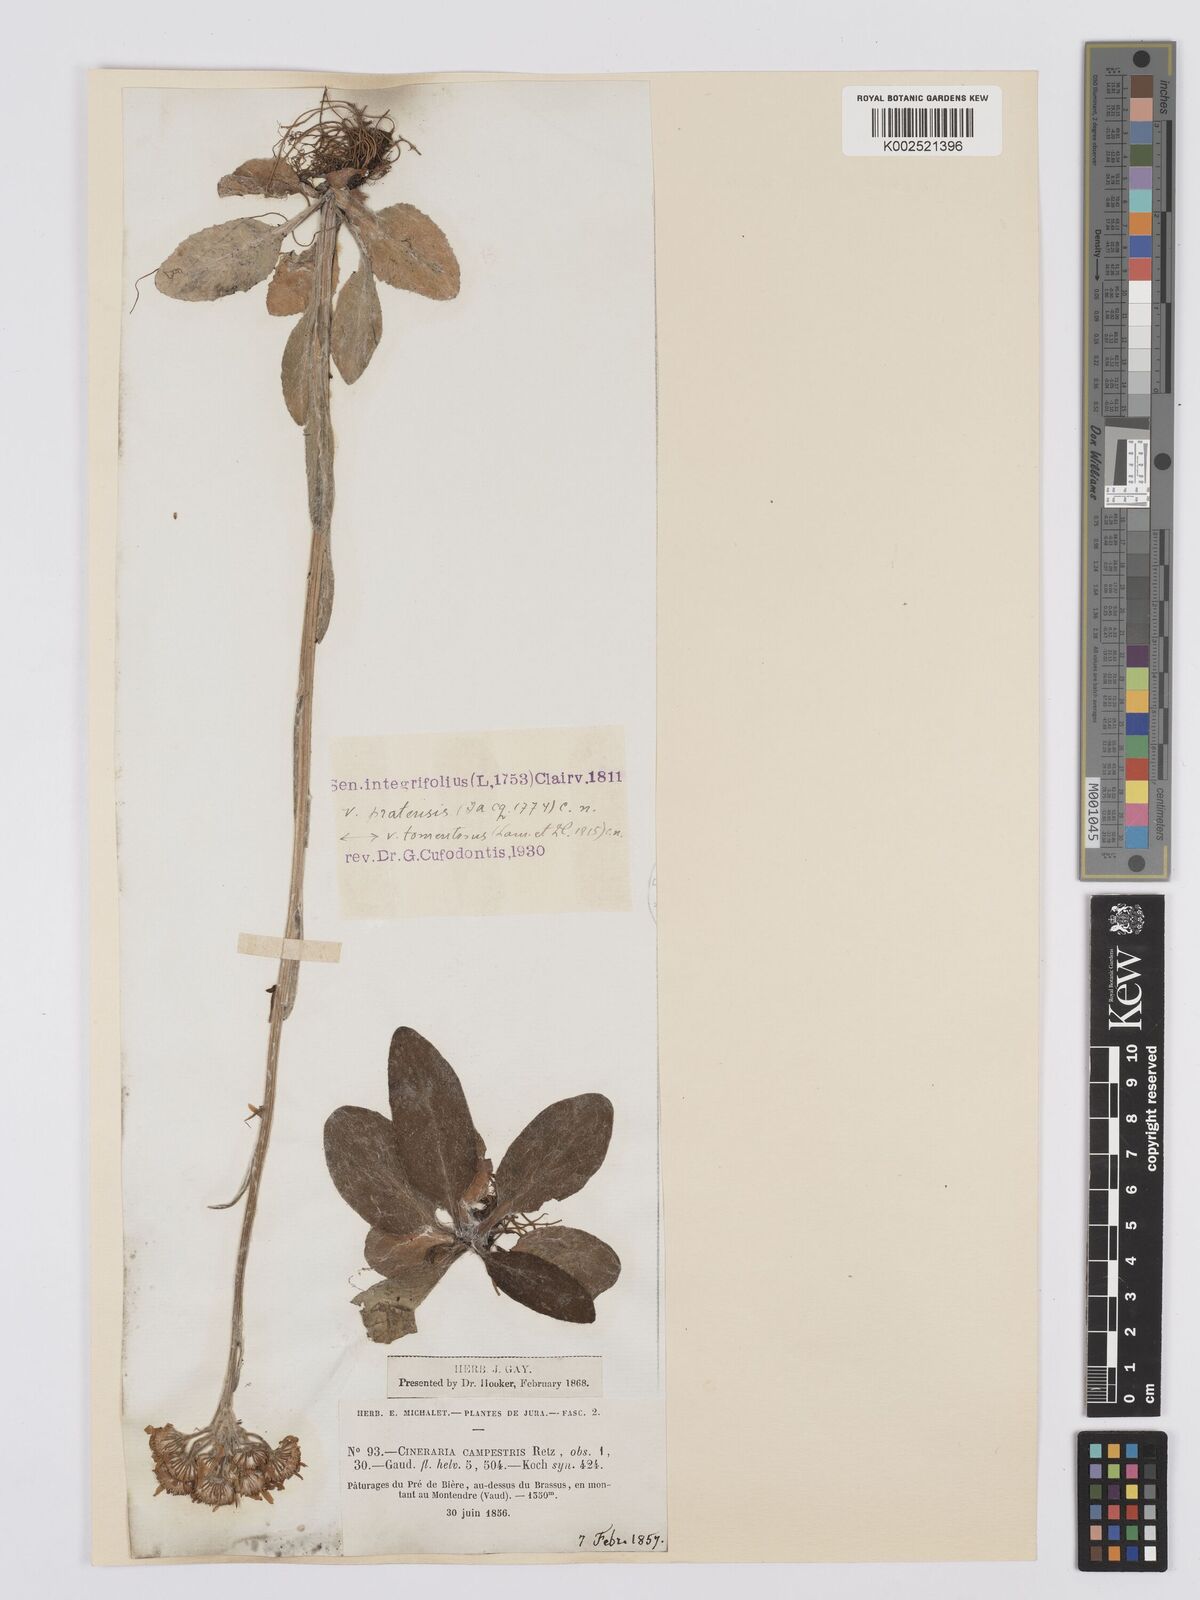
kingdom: Plantae
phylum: Tracheophyta
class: Magnoliopsida
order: Asterales
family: Asteraceae
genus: Tephroseris
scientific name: Tephroseris integrifolia
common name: Field fleawort
